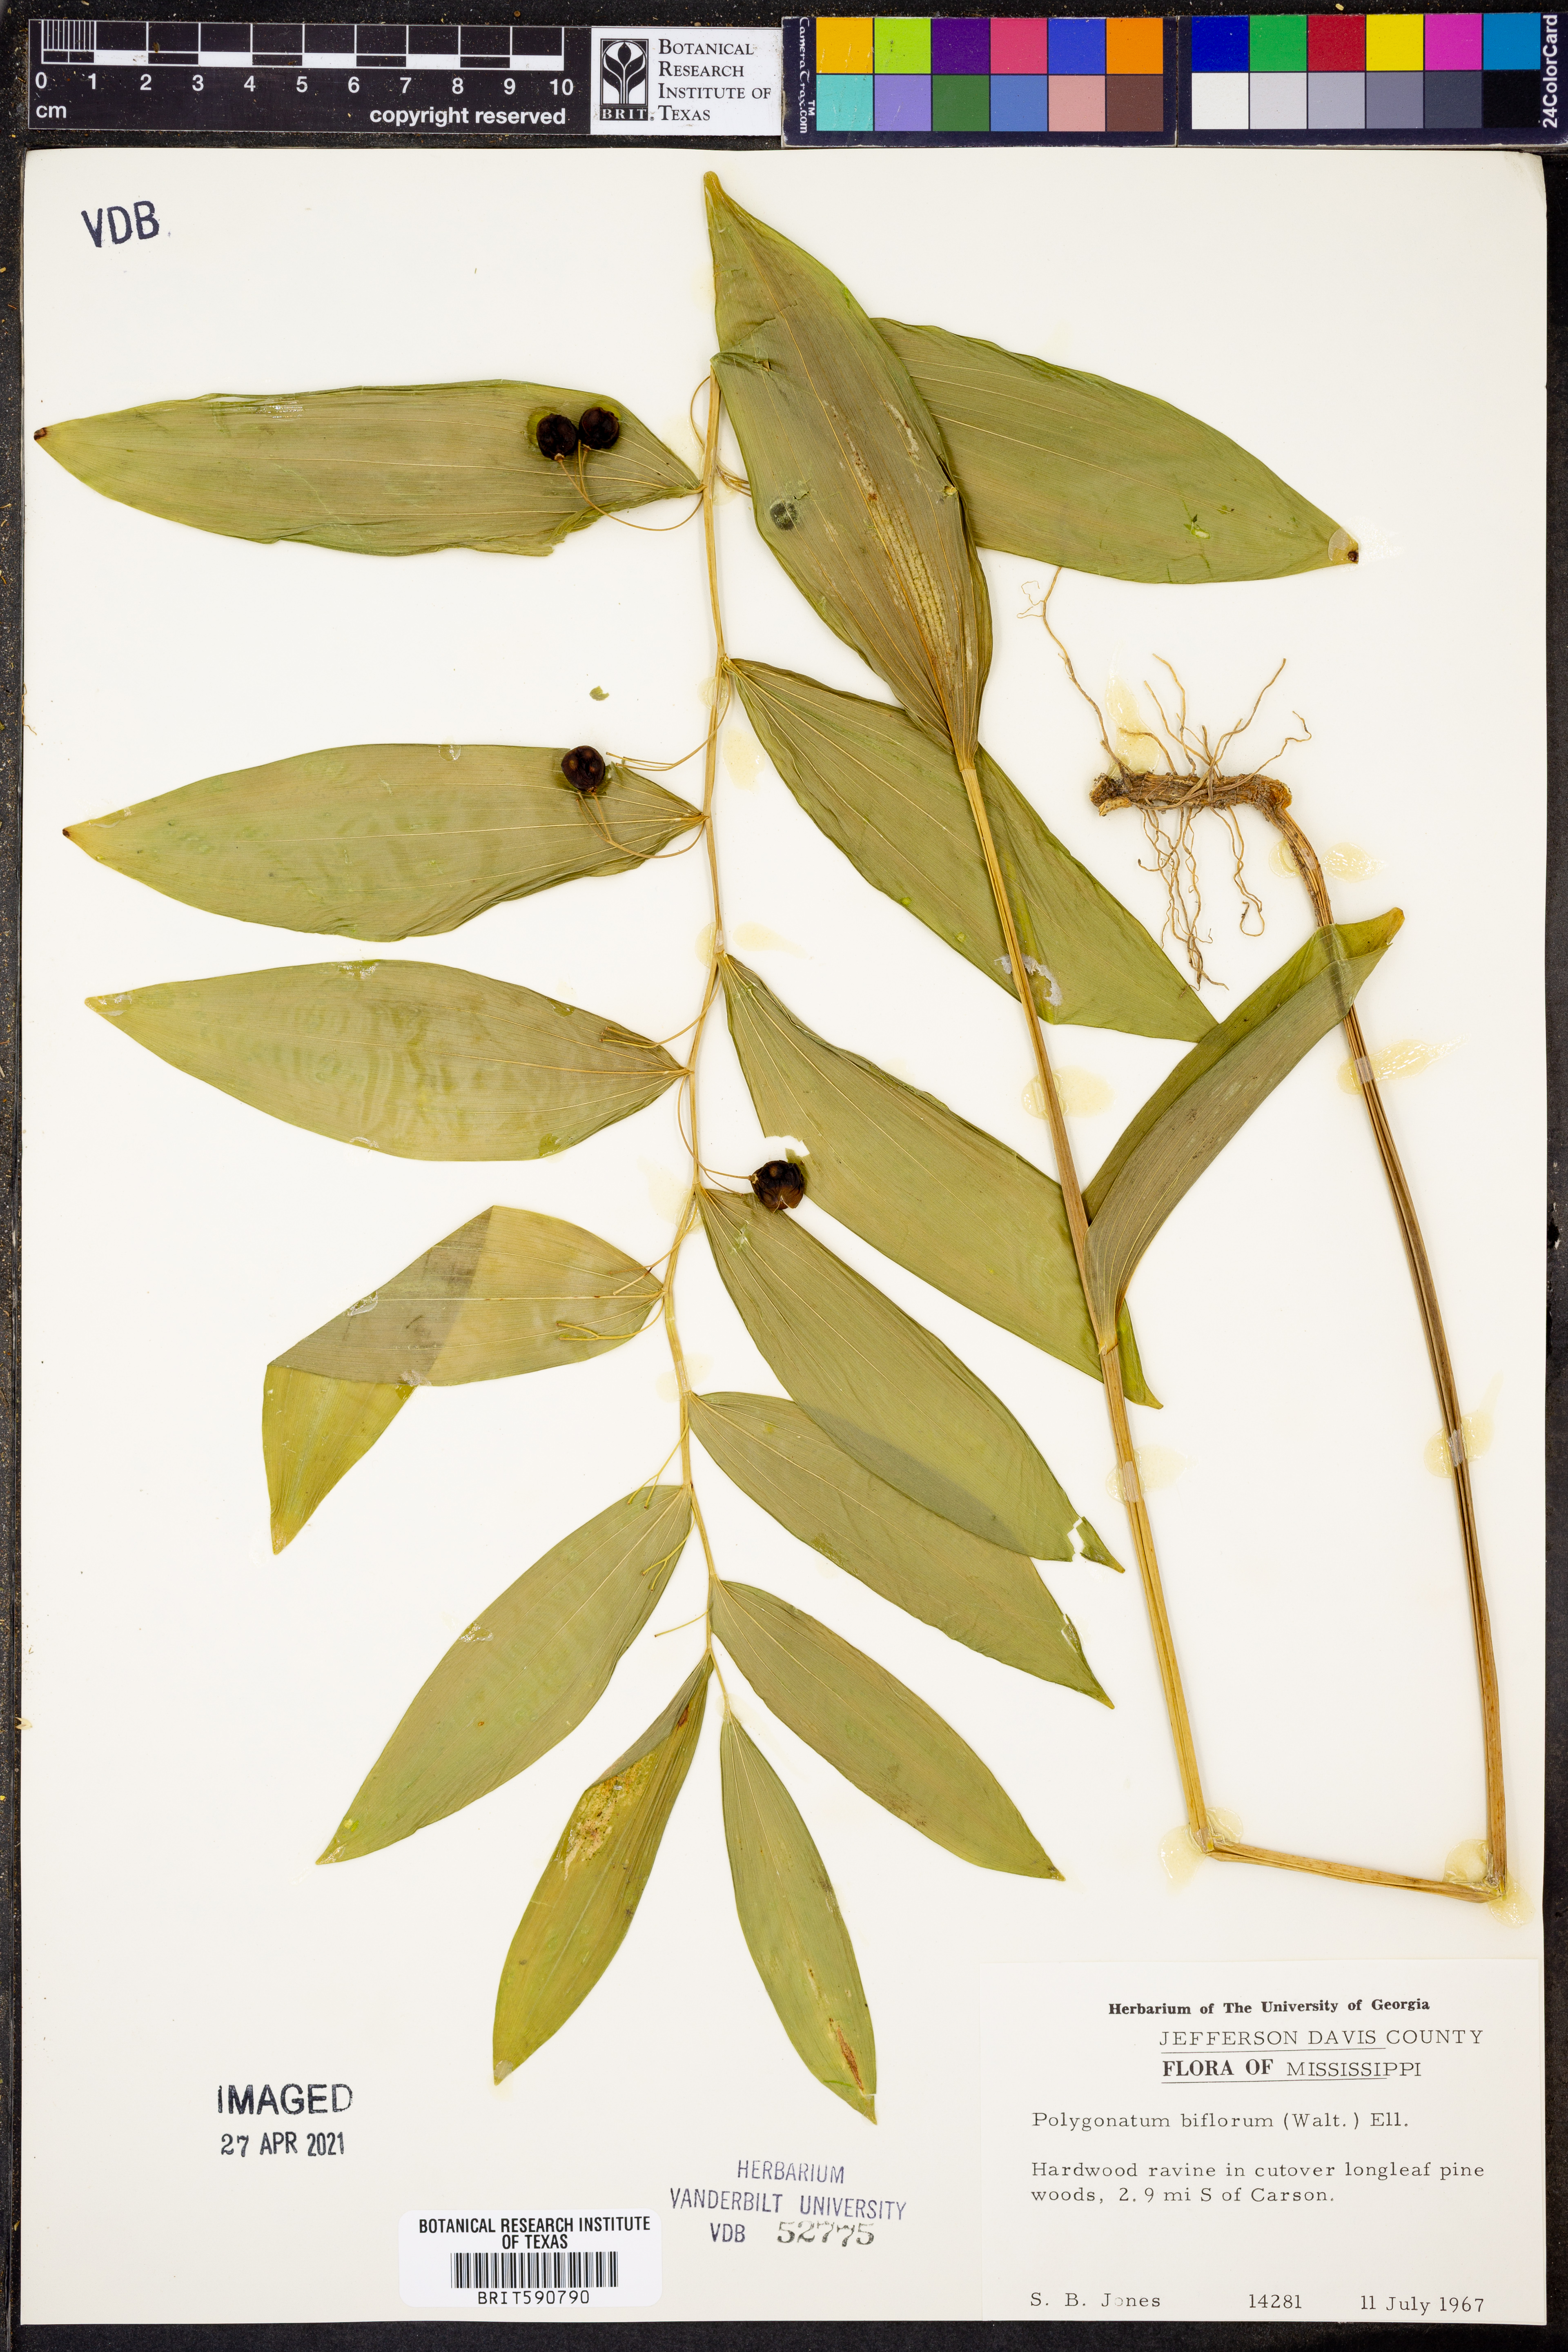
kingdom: Plantae
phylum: Tracheophyta
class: Liliopsida
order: Asparagales
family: Asparagaceae
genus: Polygonatum
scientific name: Polygonatum biflorum
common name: American solomon's-seal
